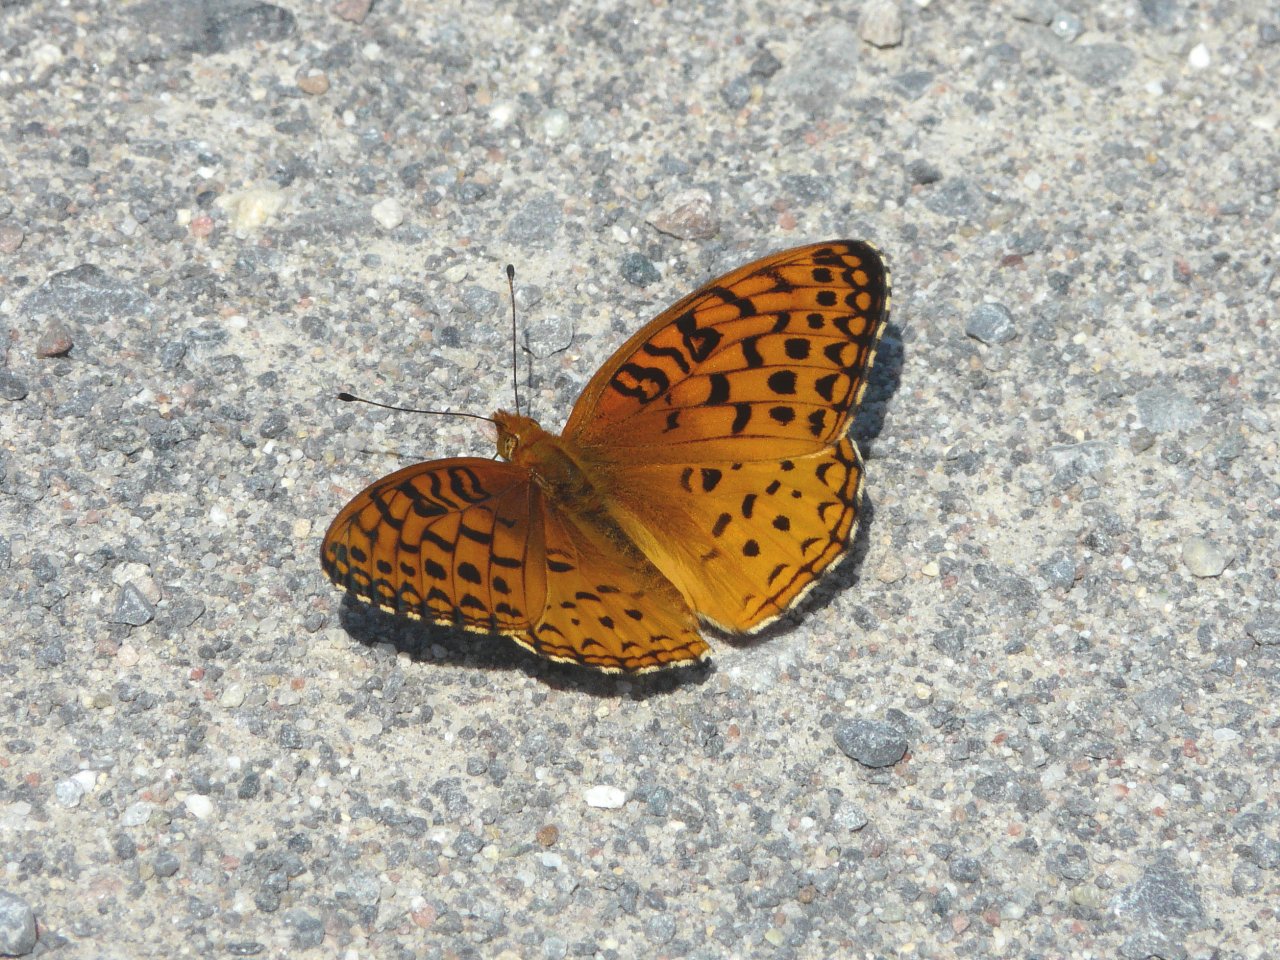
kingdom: Animalia
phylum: Arthropoda
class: Insecta
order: Lepidoptera
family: Nymphalidae
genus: Speyeria
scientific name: Speyeria aphrodite
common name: Aphrodite Fritillary
